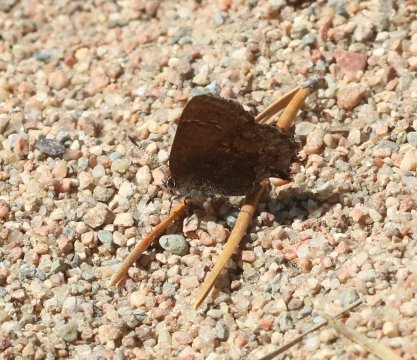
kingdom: Animalia
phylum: Arthropoda
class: Insecta
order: Lepidoptera
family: Lycaenidae
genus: Callophrys
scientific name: Callophrys polios
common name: Hoary Elfin
